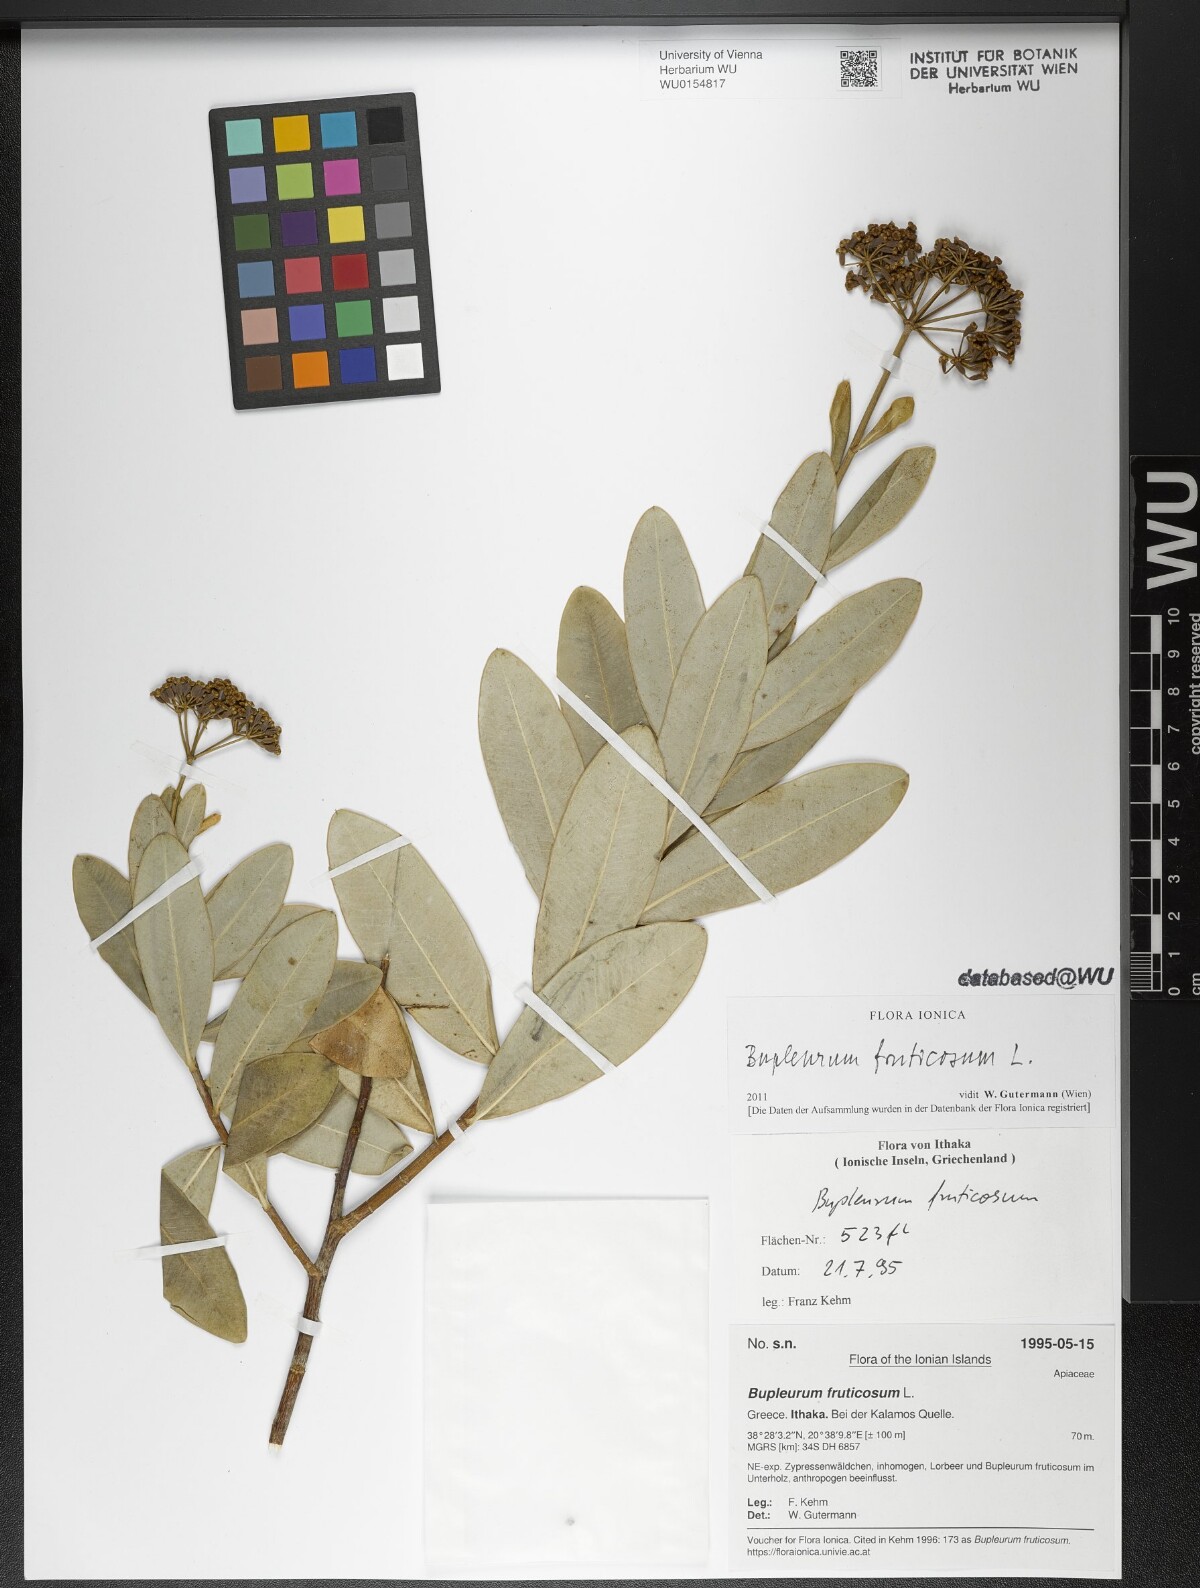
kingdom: Plantae
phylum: Tracheophyta
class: Magnoliopsida
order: Apiales
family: Apiaceae
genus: Bupleurum
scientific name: Bupleurum fruticosum
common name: Shrubby hare's-ear
